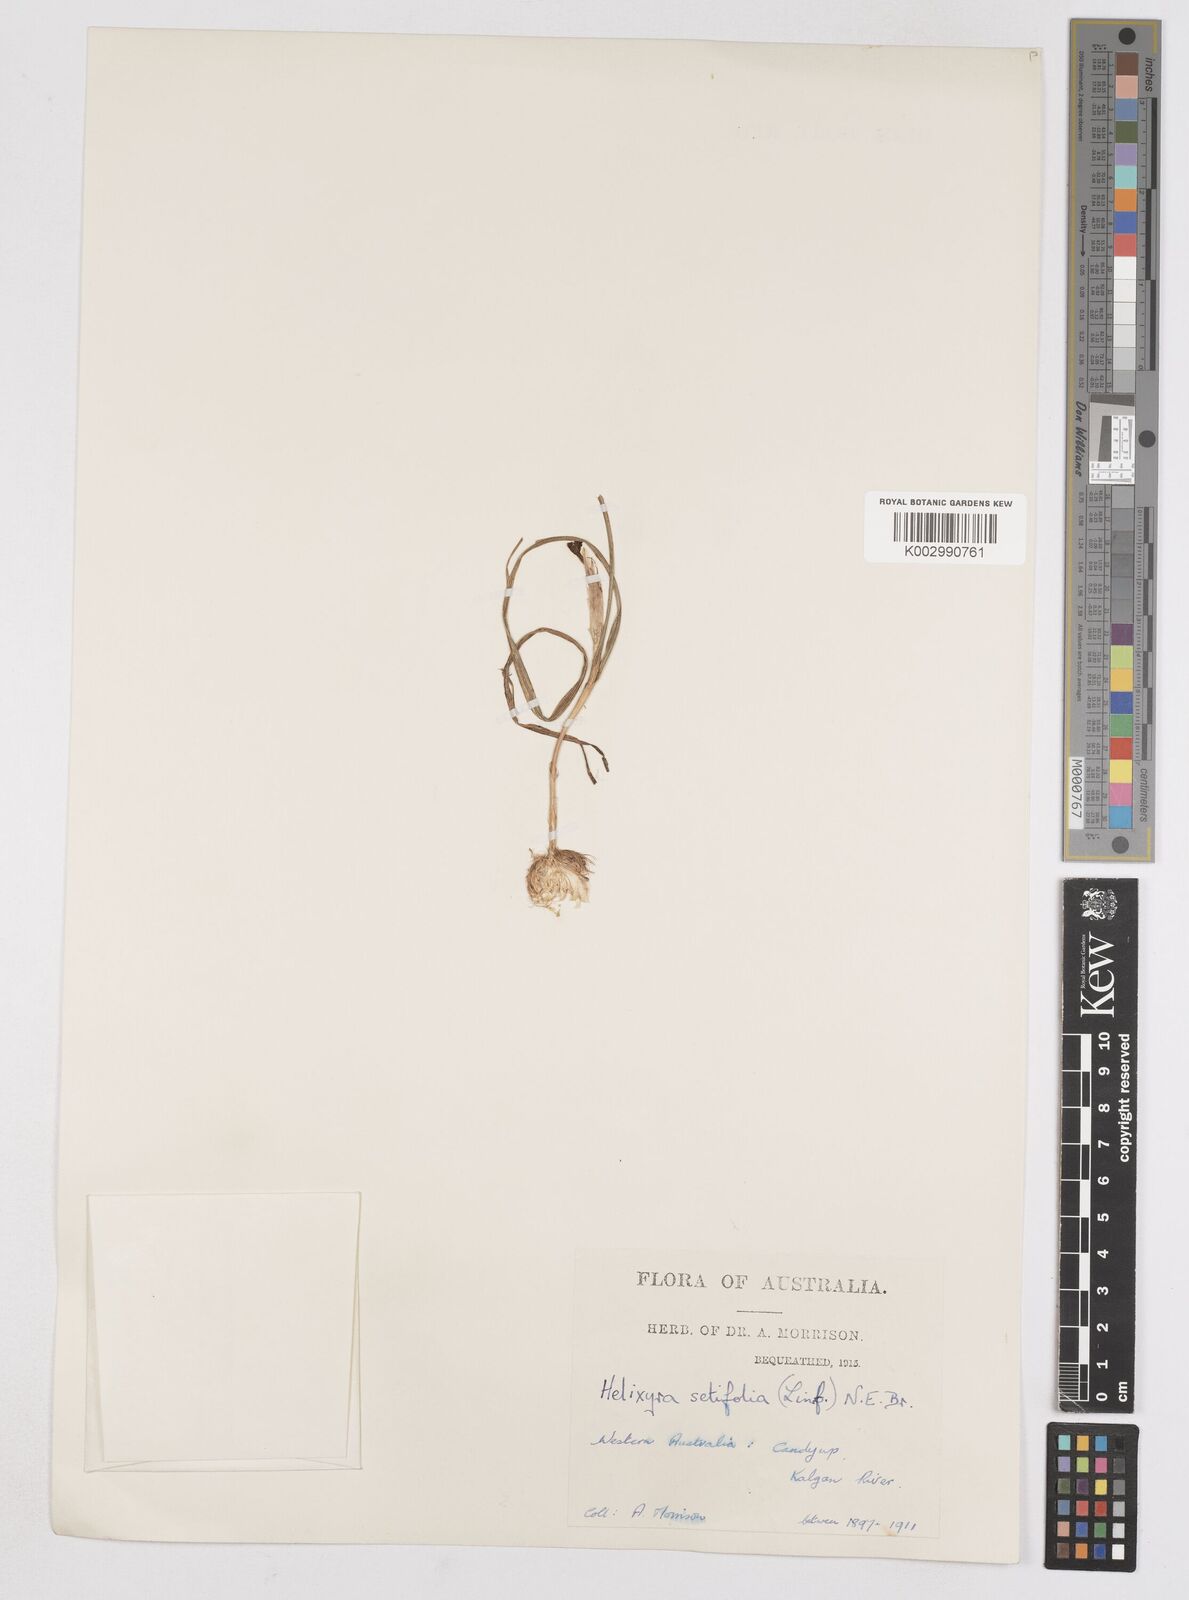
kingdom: Plantae
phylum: Tracheophyta
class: Liliopsida
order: Asparagales
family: Iridaceae
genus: Moraea
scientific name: Moraea setifolia
